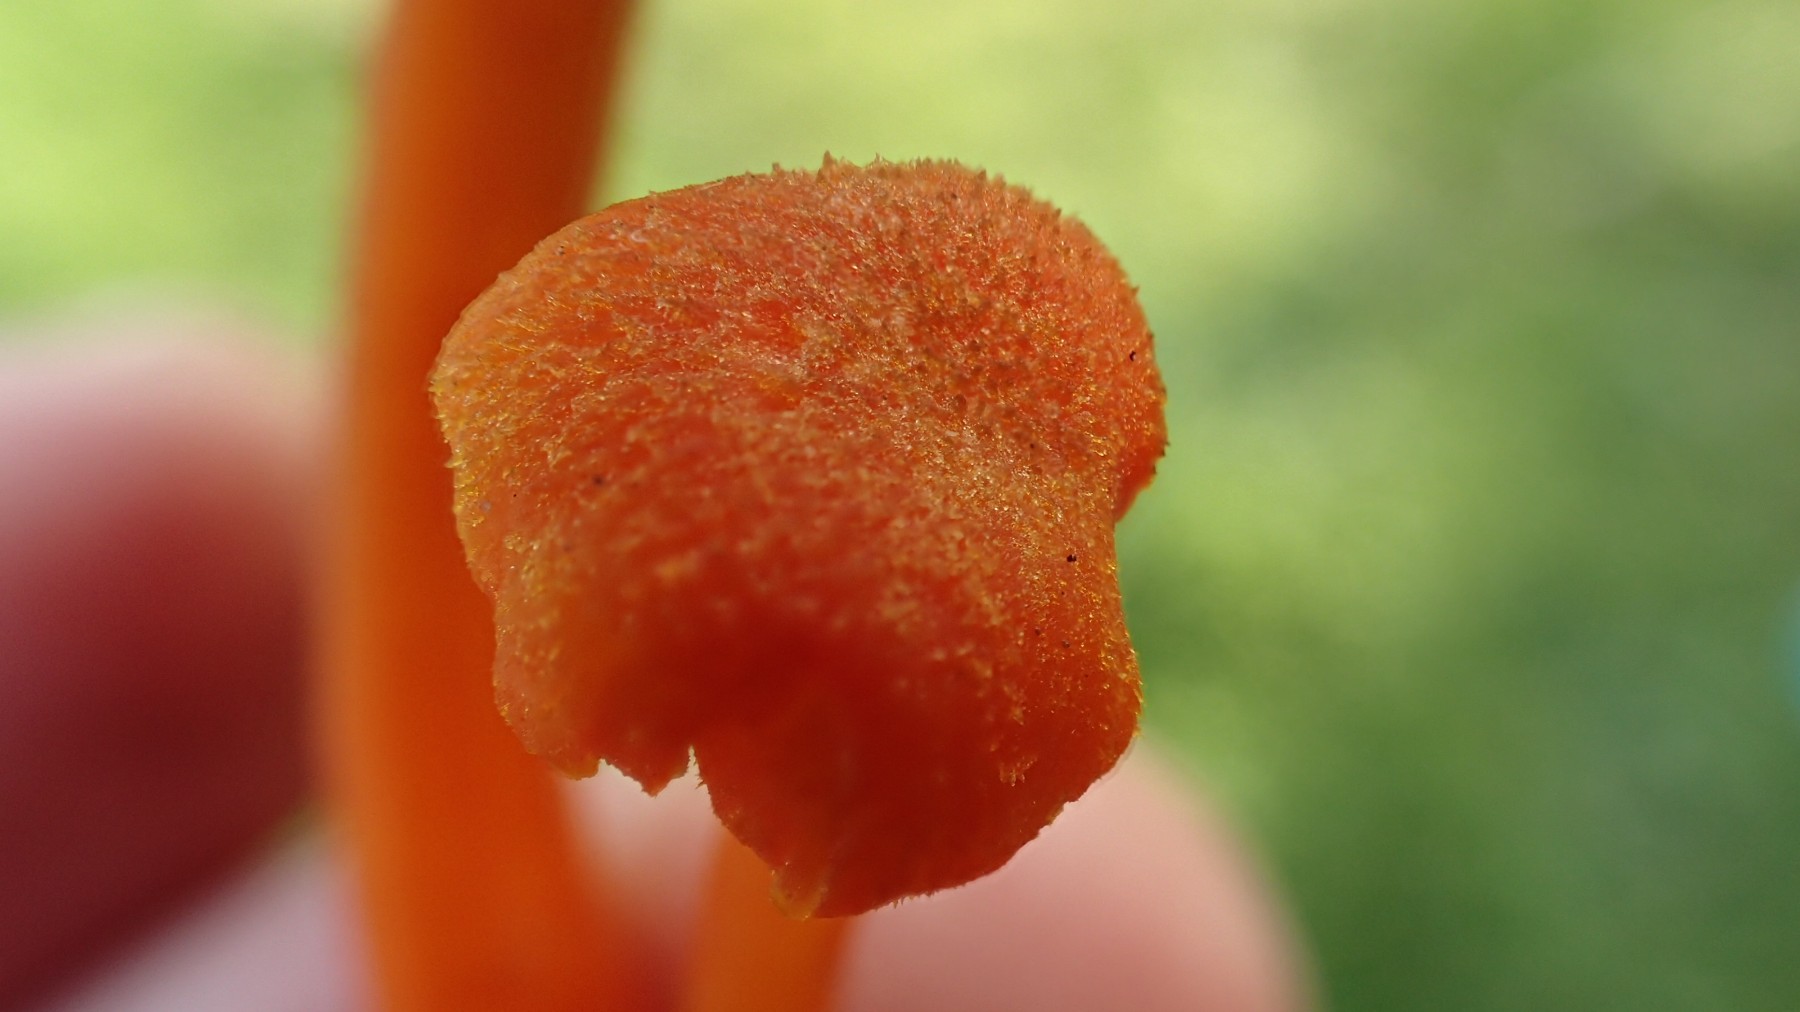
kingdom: Fungi
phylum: Basidiomycota
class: Agaricomycetes
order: Agaricales
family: Hygrophoraceae
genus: Hygrocybe
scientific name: Hygrocybe cantharellus
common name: kantarel-vokshat
